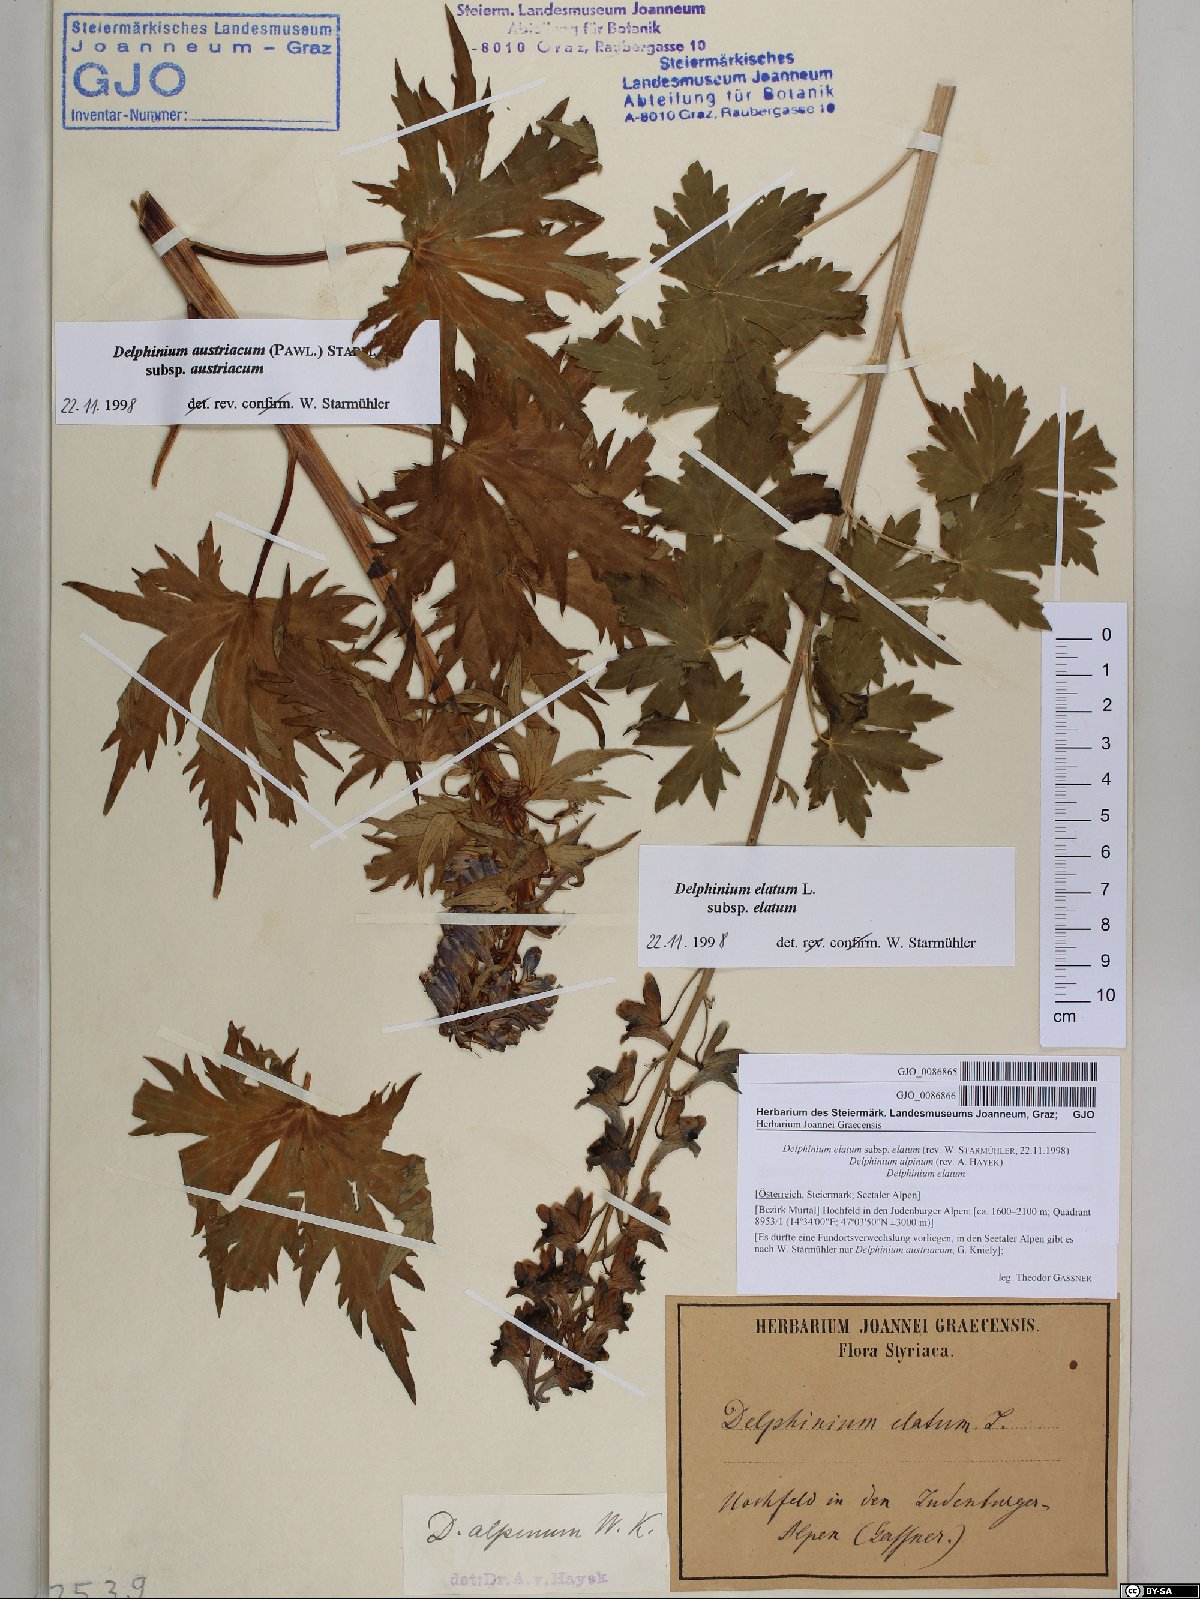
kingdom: Plantae
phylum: Tracheophyta
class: Magnoliopsida
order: Ranunculales
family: Ranunculaceae
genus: Delphinium
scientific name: Delphinium elatum
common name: Candle larkspur
